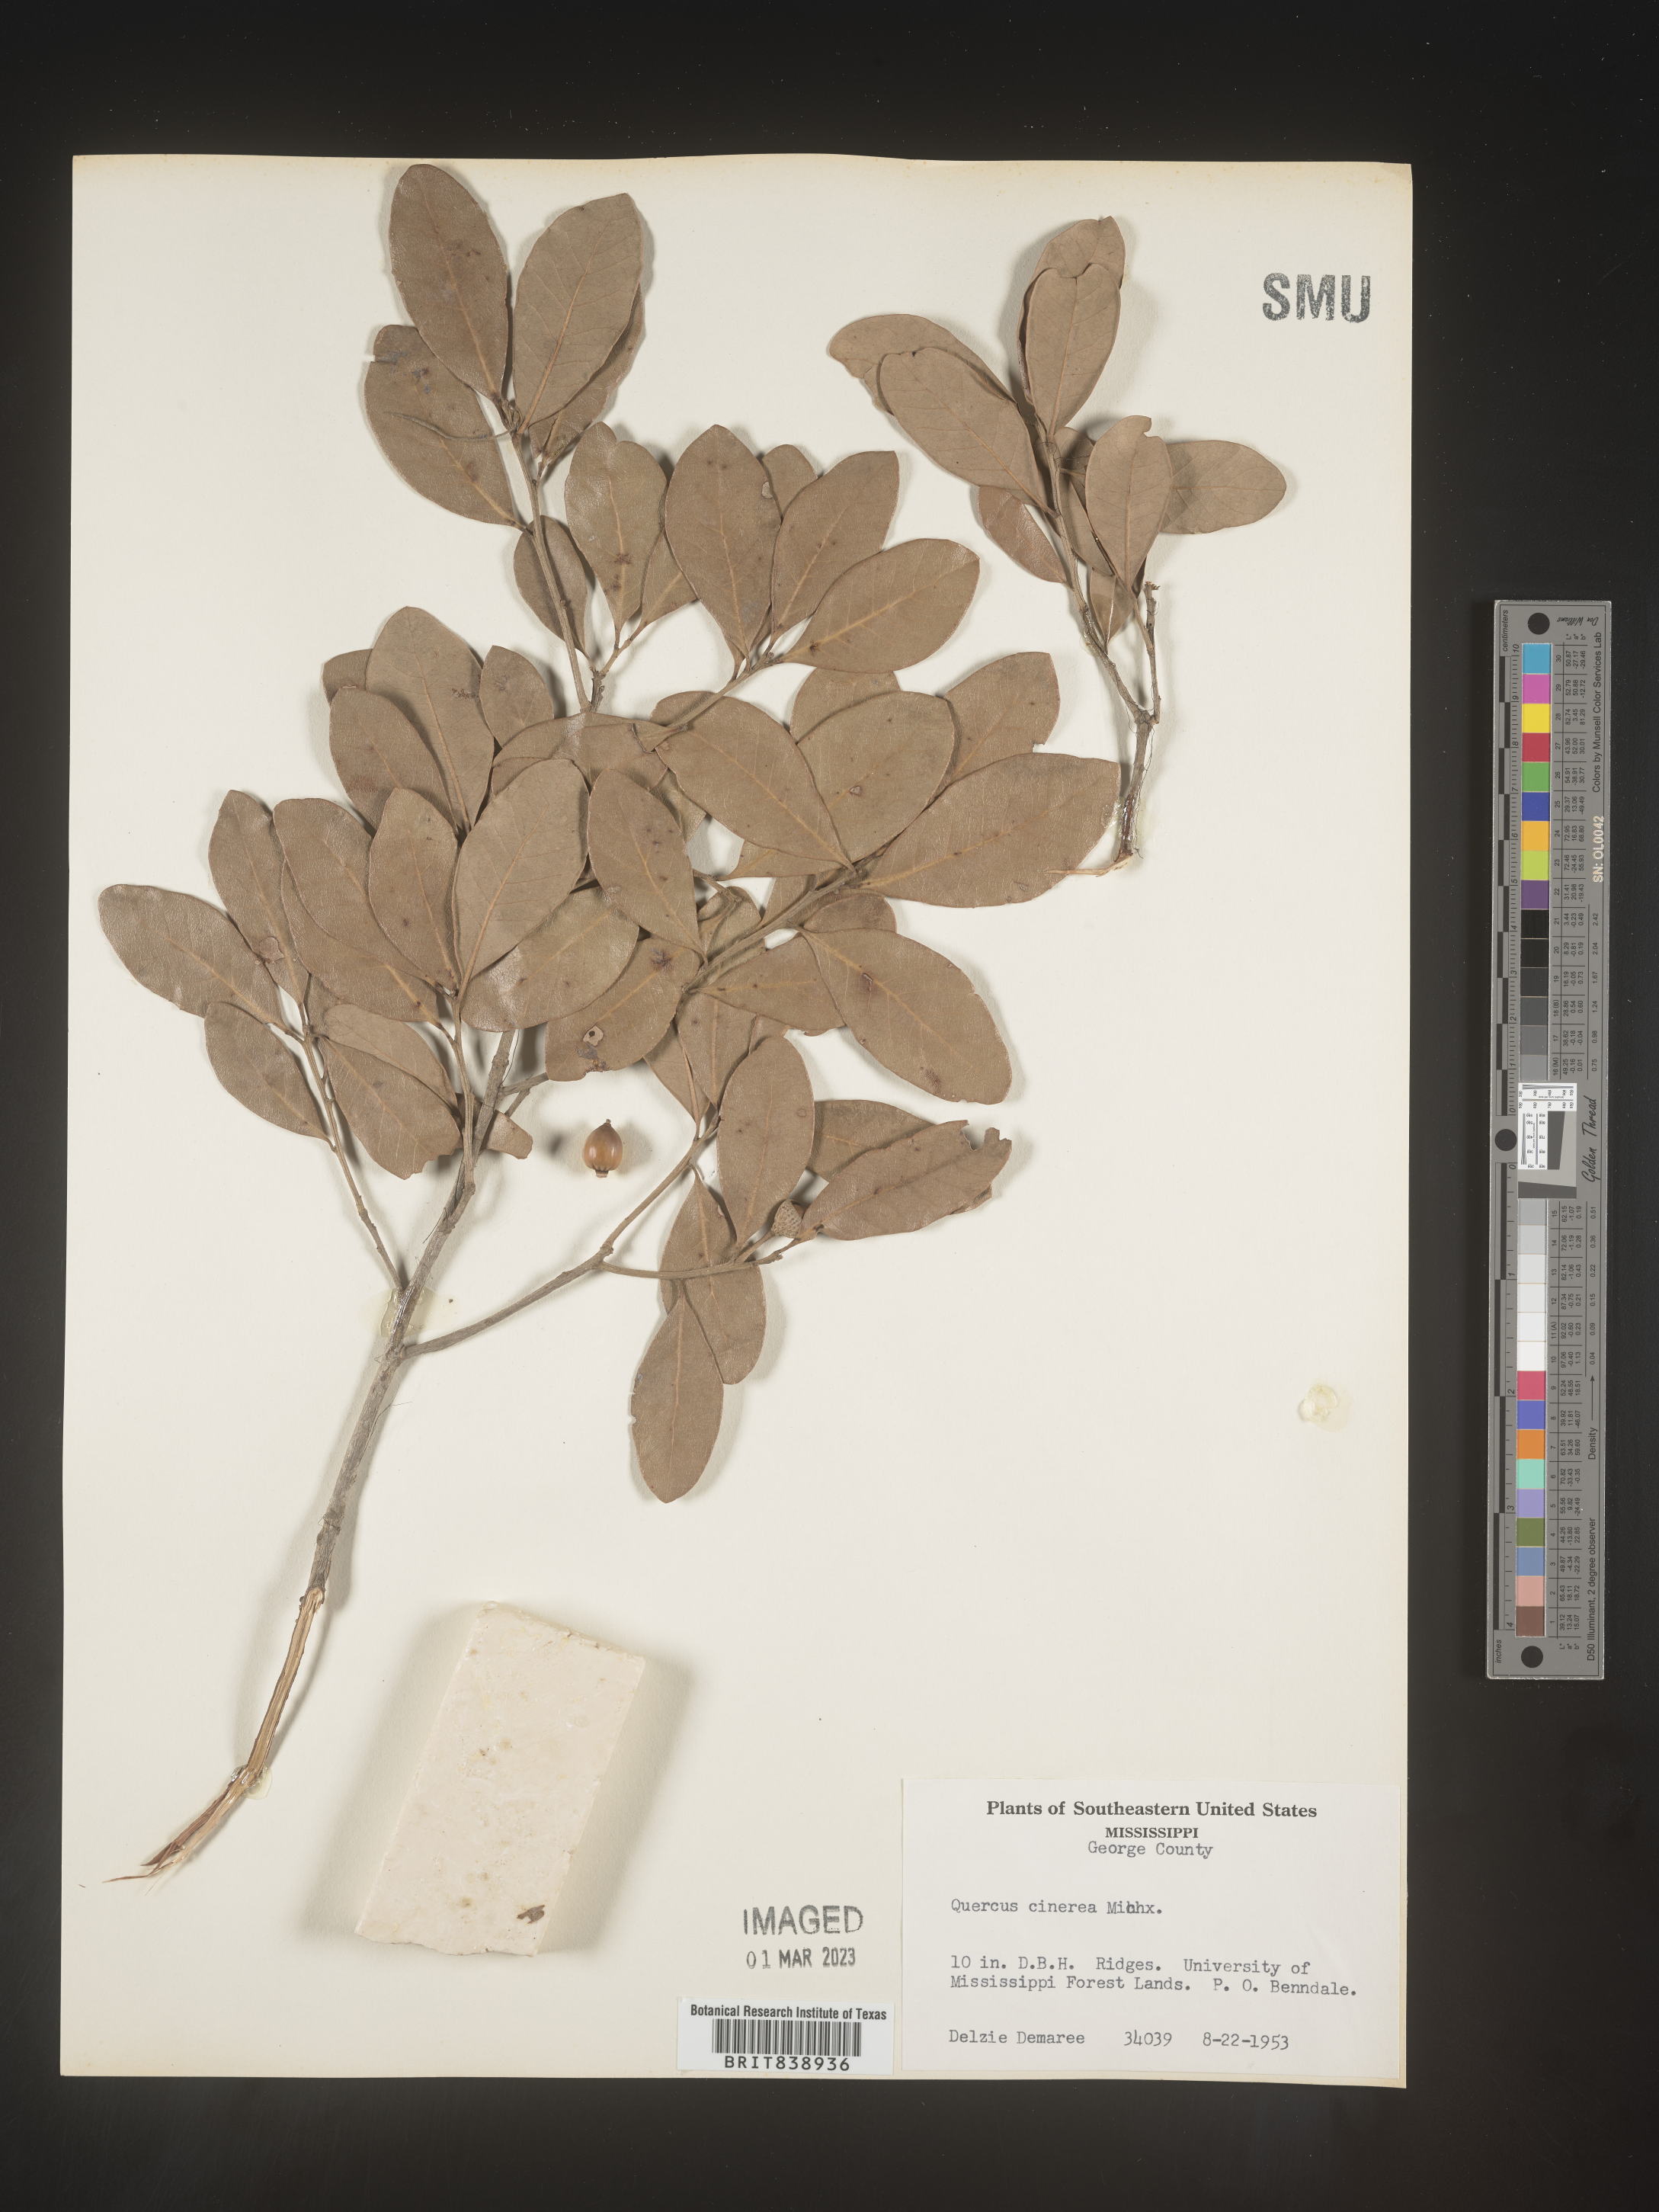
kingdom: Plantae
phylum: Tracheophyta
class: Magnoliopsida
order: Fagales
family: Fagaceae
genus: Quercus
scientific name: Quercus incana
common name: Bluejack oak
